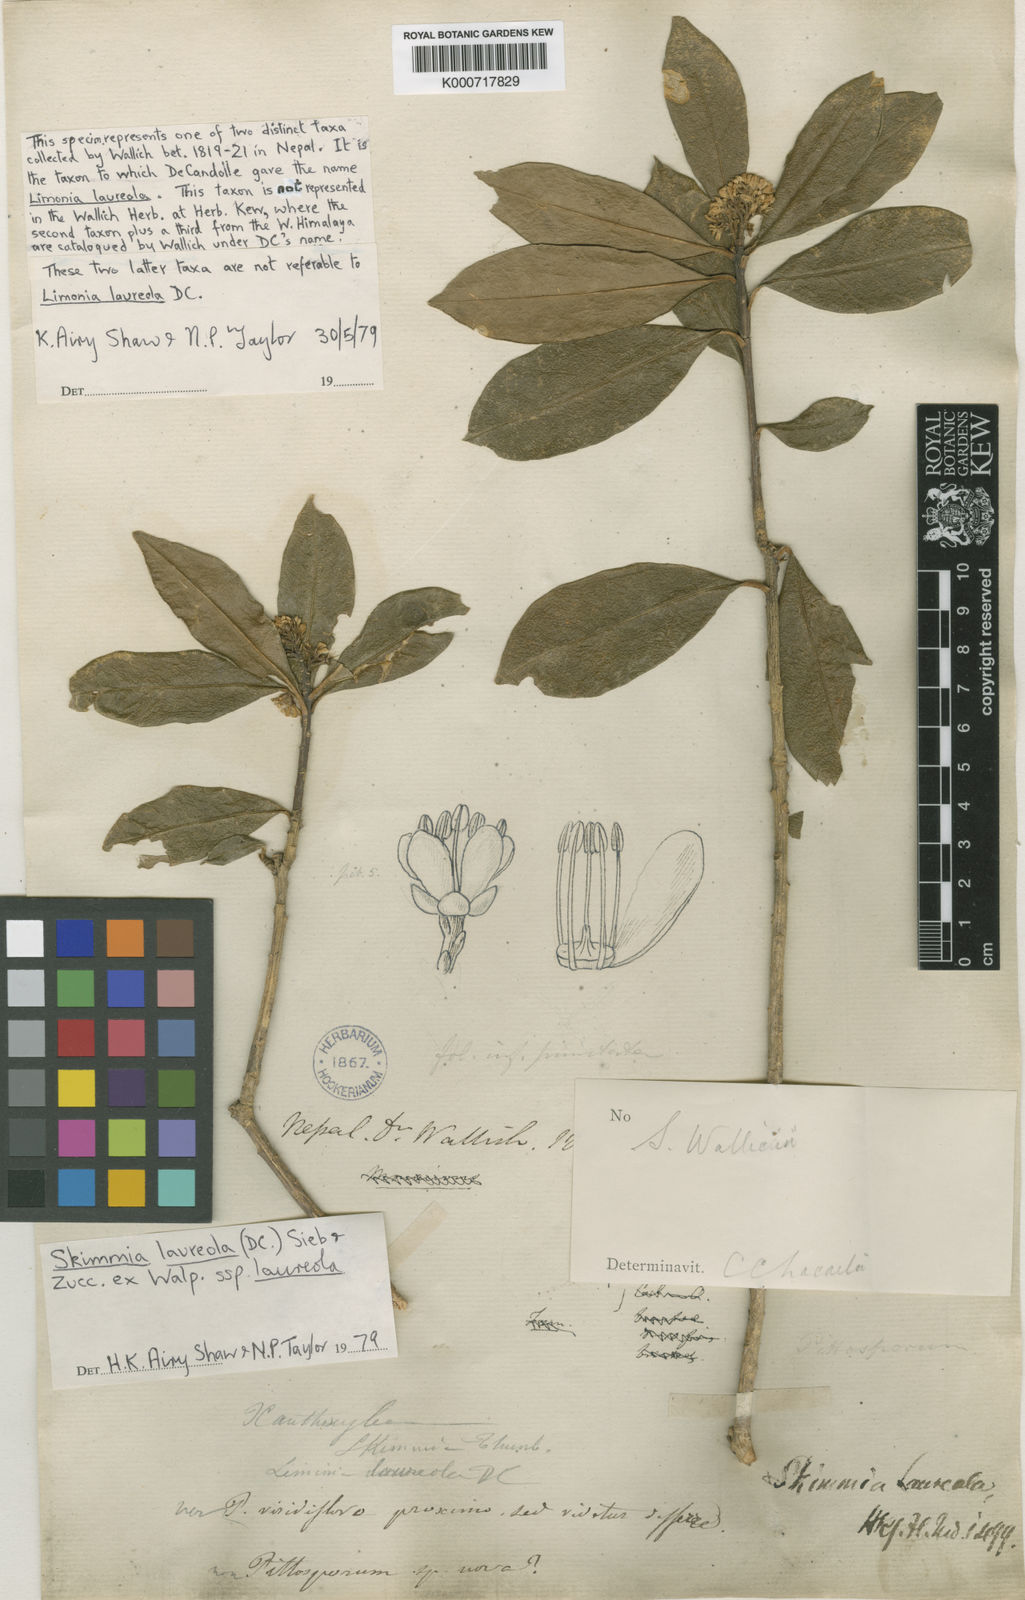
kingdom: Plantae
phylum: Tracheophyta
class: Magnoliopsida
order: Sapindales
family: Rutaceae
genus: Skimmia
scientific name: Skimmia
